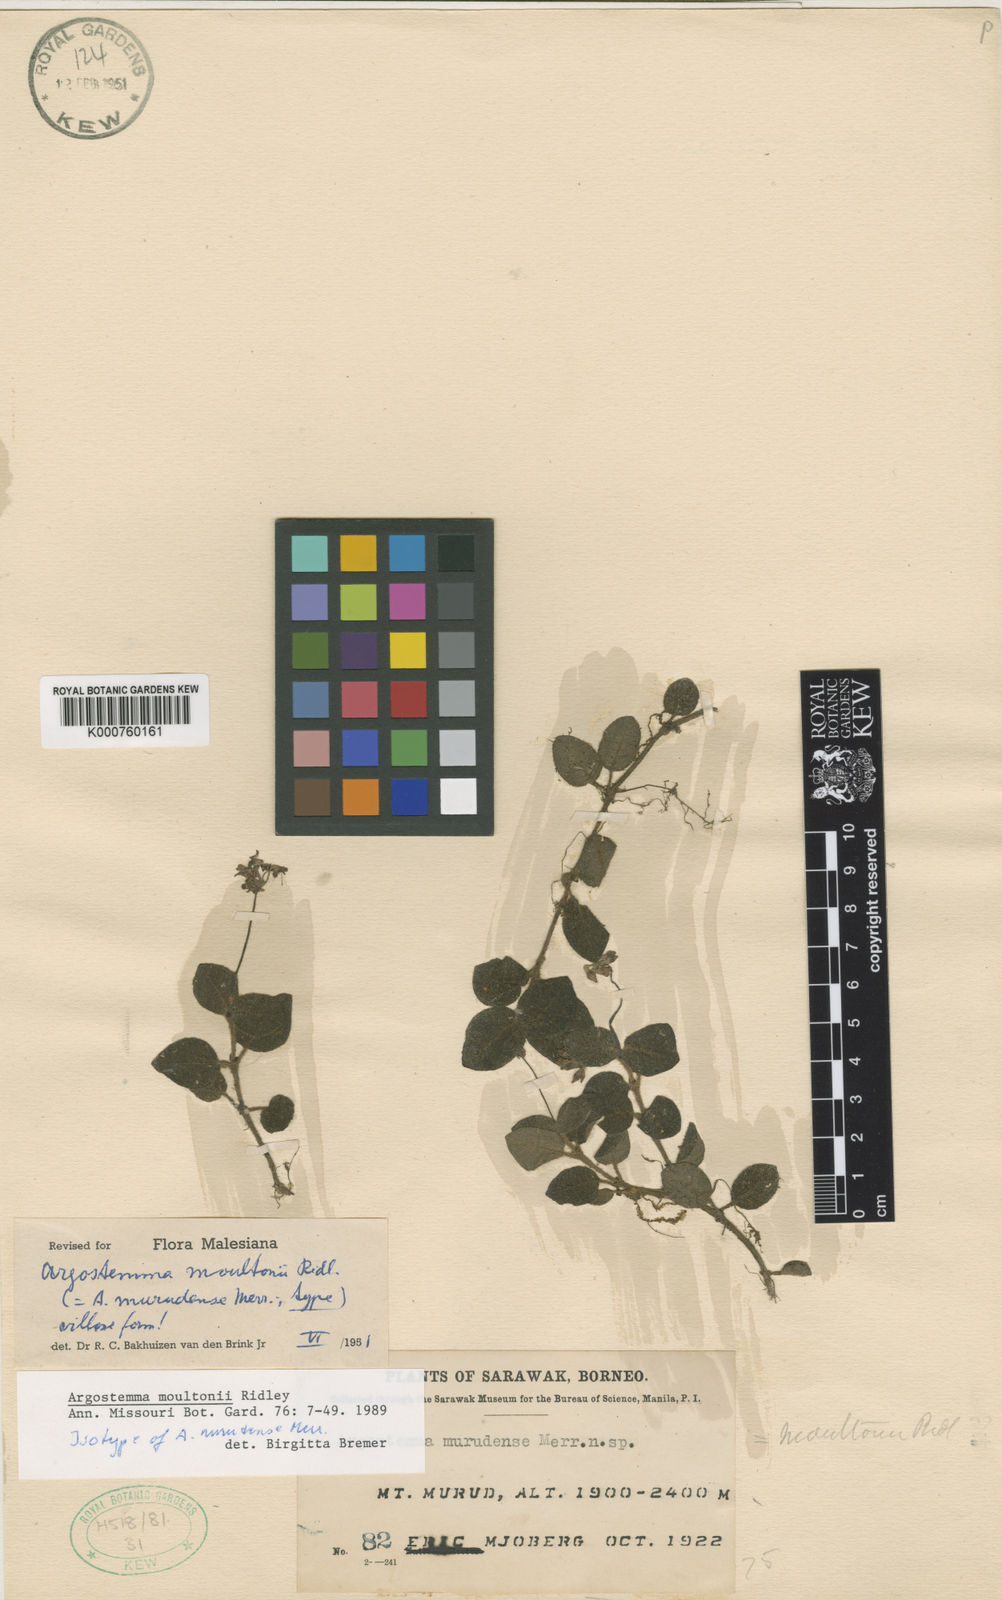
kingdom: Plantae
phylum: Tracheophyta
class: Magnoliopsida
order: Gentianales
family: Rubiaceae
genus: Argostemma
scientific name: Argostemma moultonii
